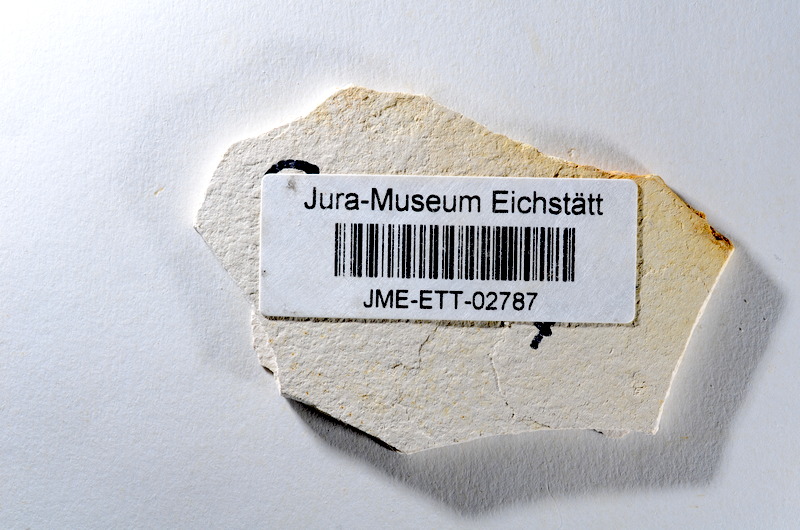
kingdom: Animalia
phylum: Chordata
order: Salmoniformes
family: Orthogonikleithridae
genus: Orthogonikleithrus
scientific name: Orthogonikleithrus hoelli
